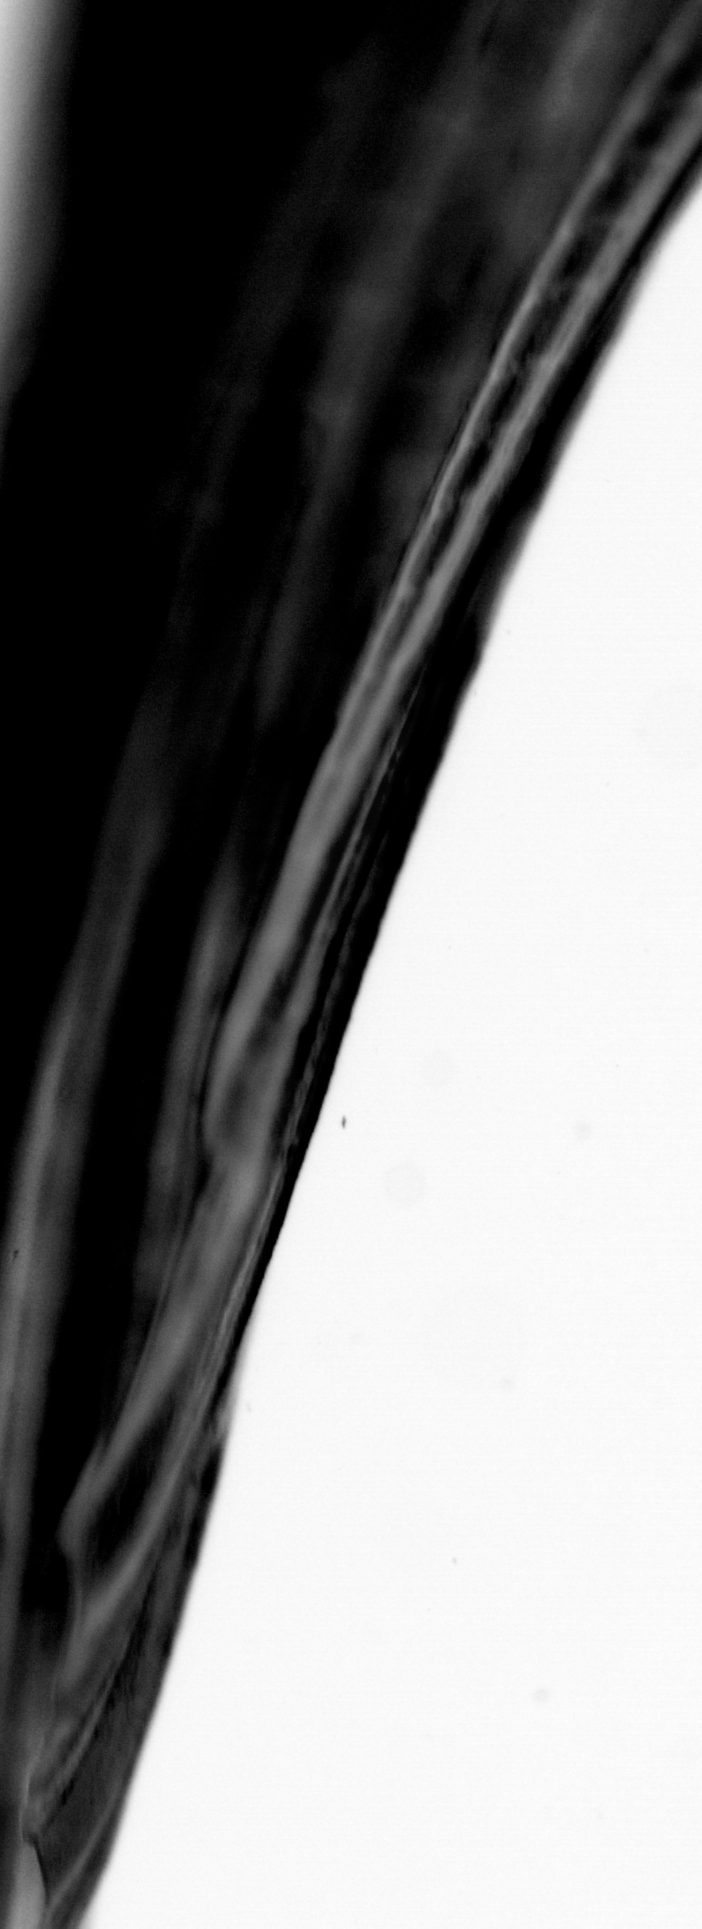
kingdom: Animalia
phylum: Chordata
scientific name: Chordata
